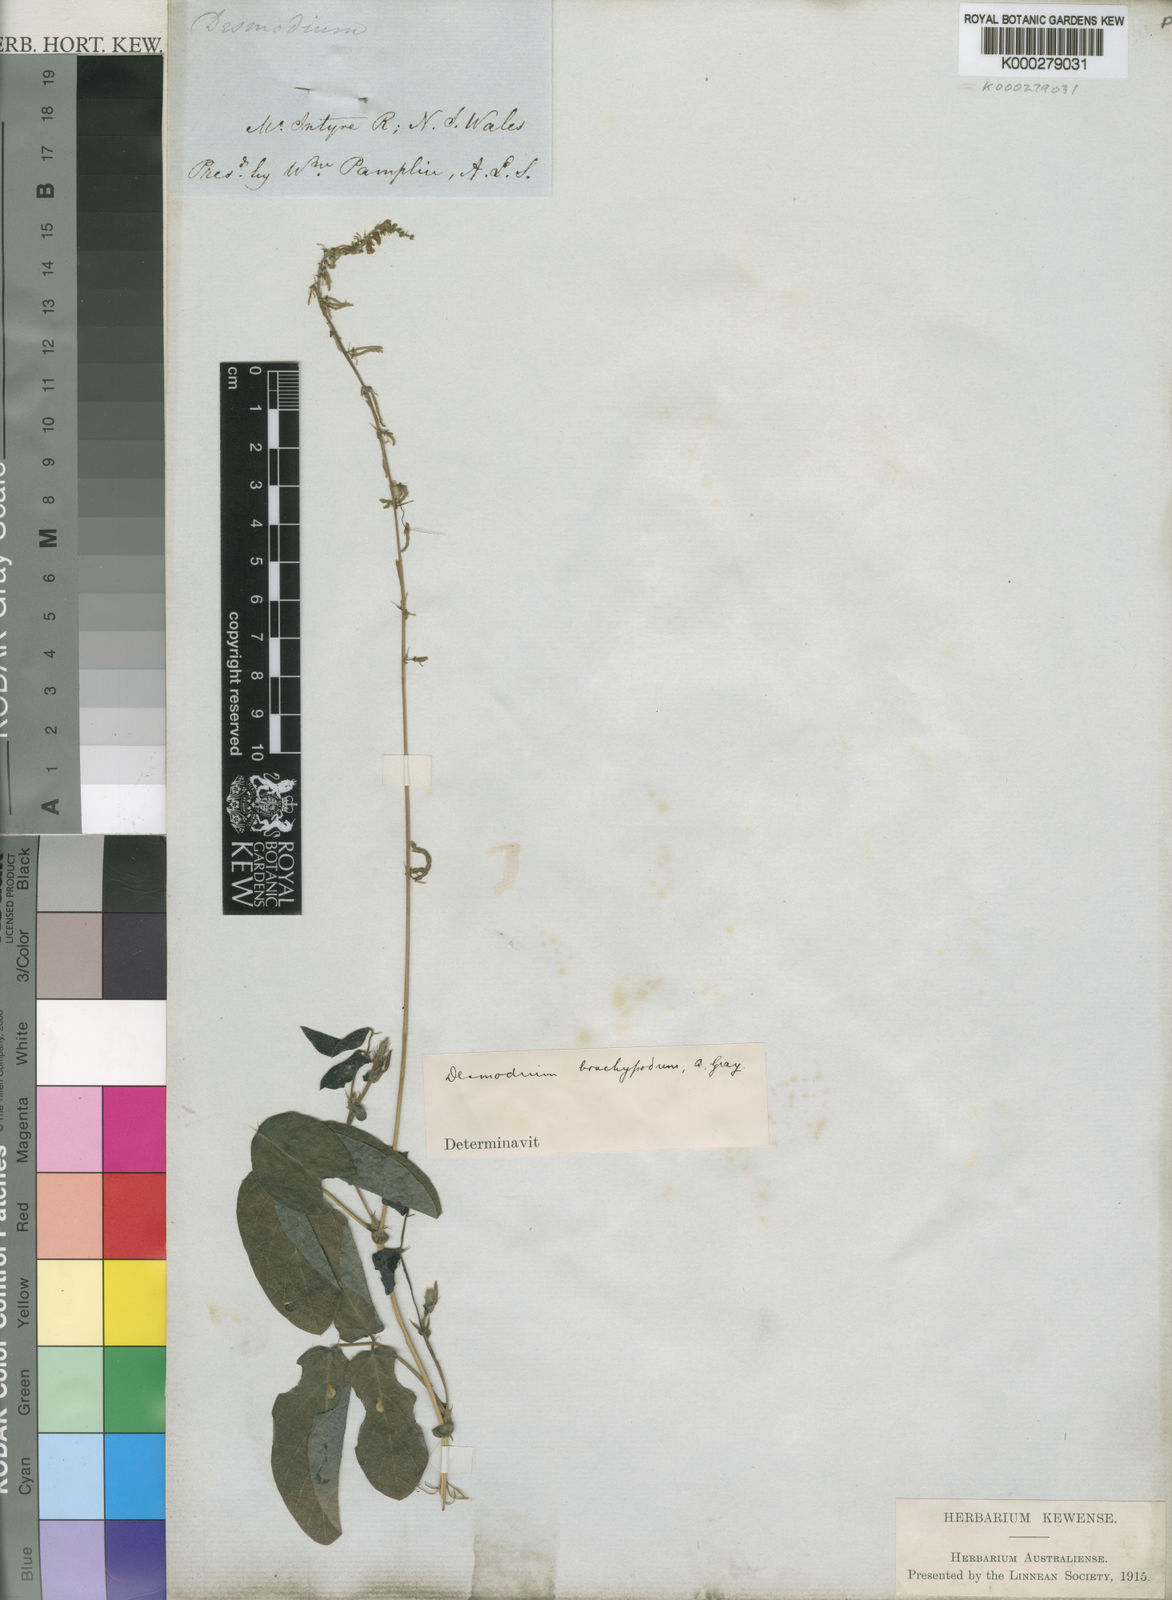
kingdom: Plantae
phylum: Tracheophyta
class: Magnoliopsida
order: Fabales
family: Fabaceae
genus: Oxytes
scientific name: Oxytes brachypoda
